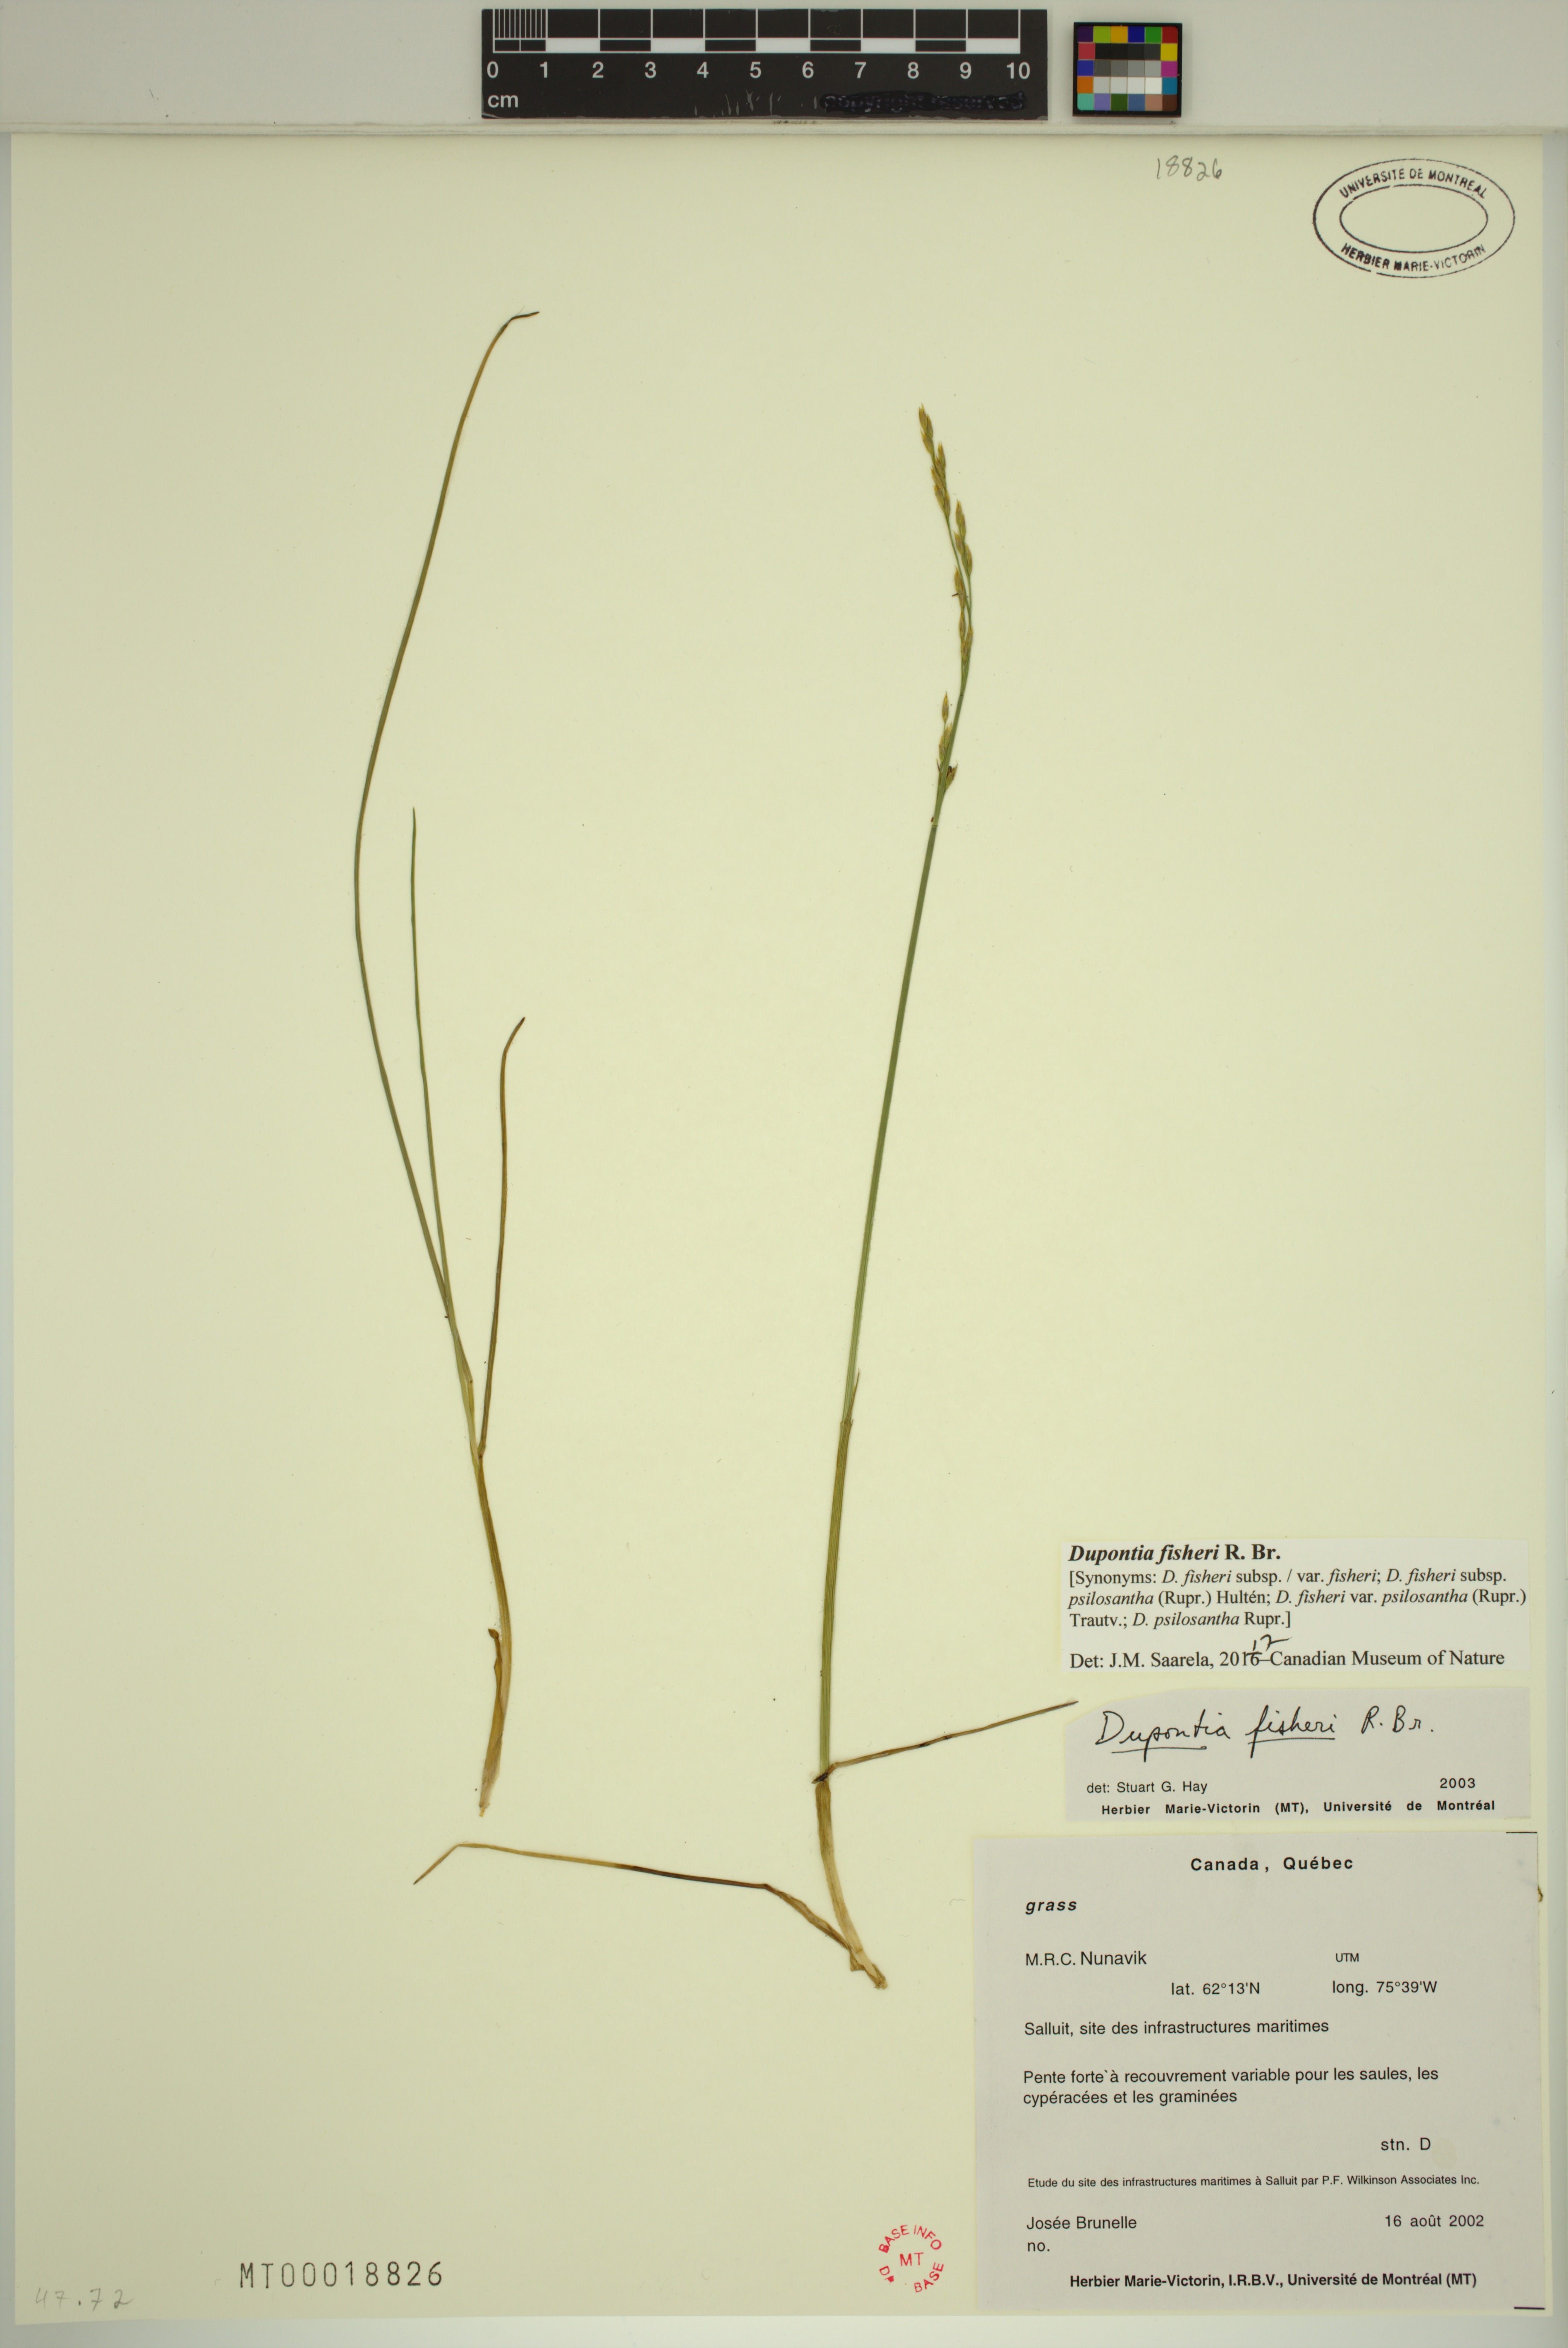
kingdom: Plantae
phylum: Tracheophyta
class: Liliopsida
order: Poales
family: Poaceae
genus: Dupontia
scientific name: Dupontia fisheri
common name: Tundra grass
